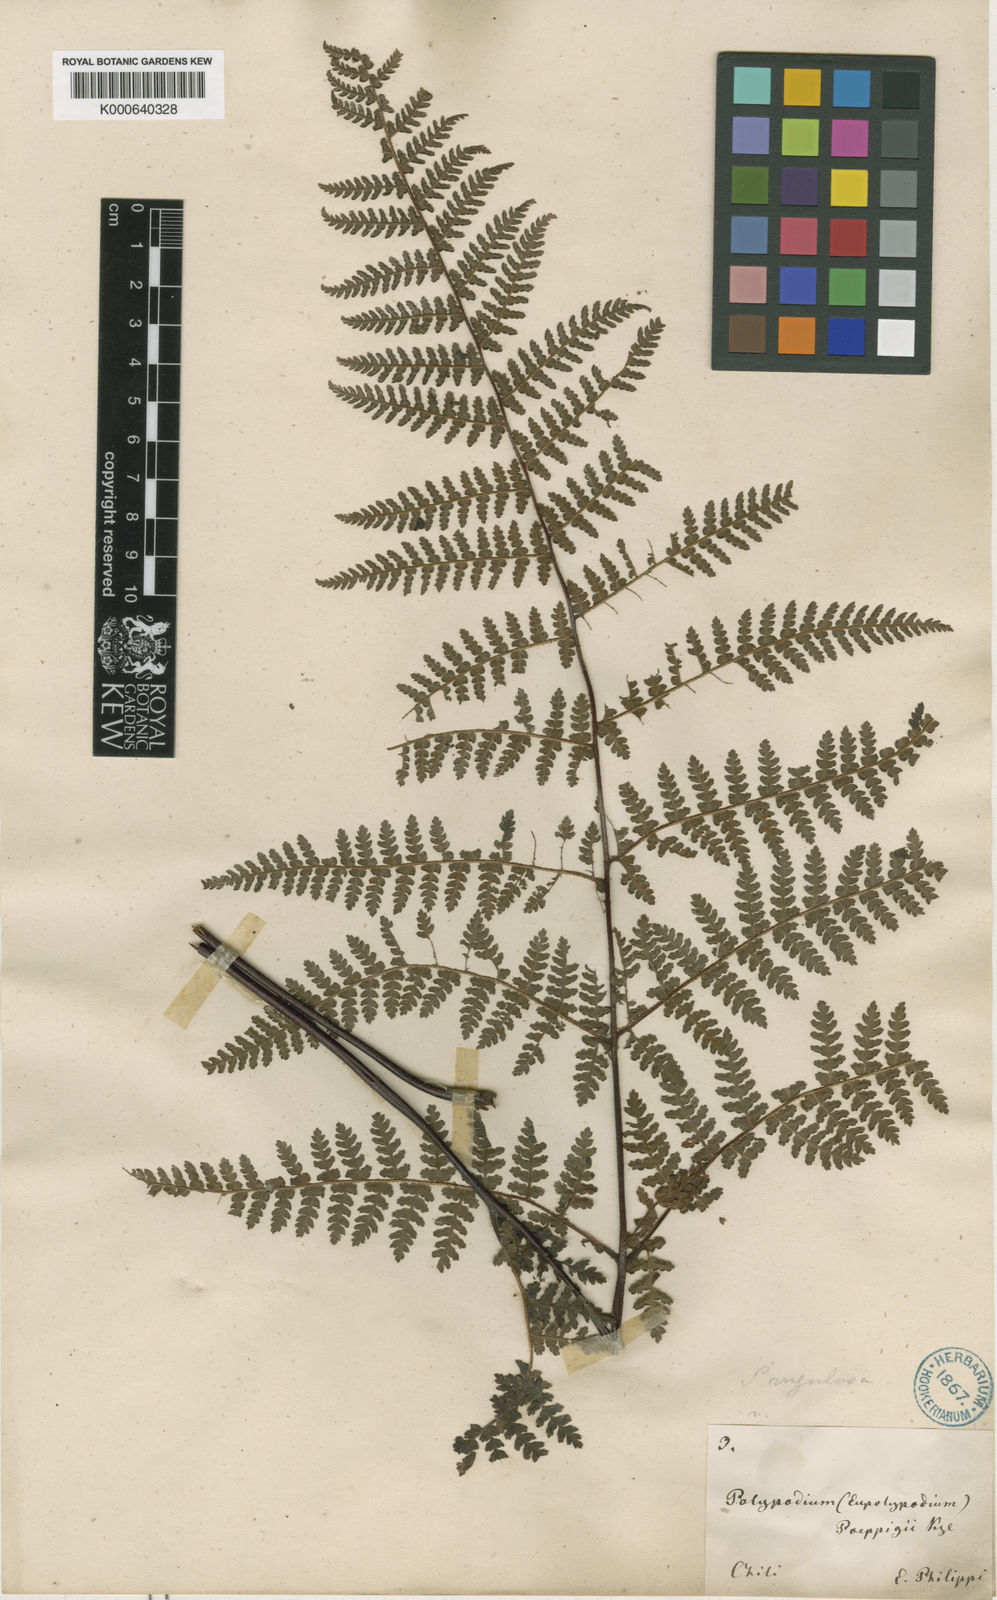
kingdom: Plantae
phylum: Tracheophyta
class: Polypodiopsida
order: Polypodiales
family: Dennstaedtiaceae
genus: Hypolepis
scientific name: Hypolepis rugosula
